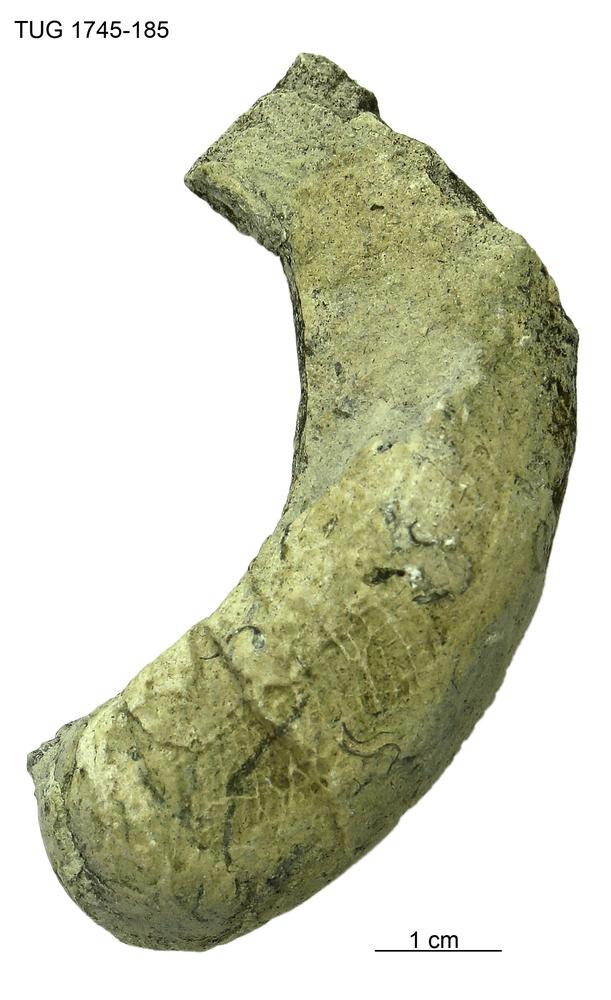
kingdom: Animalia
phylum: Mollusca
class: Cephalopoda
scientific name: Cephalopoda
